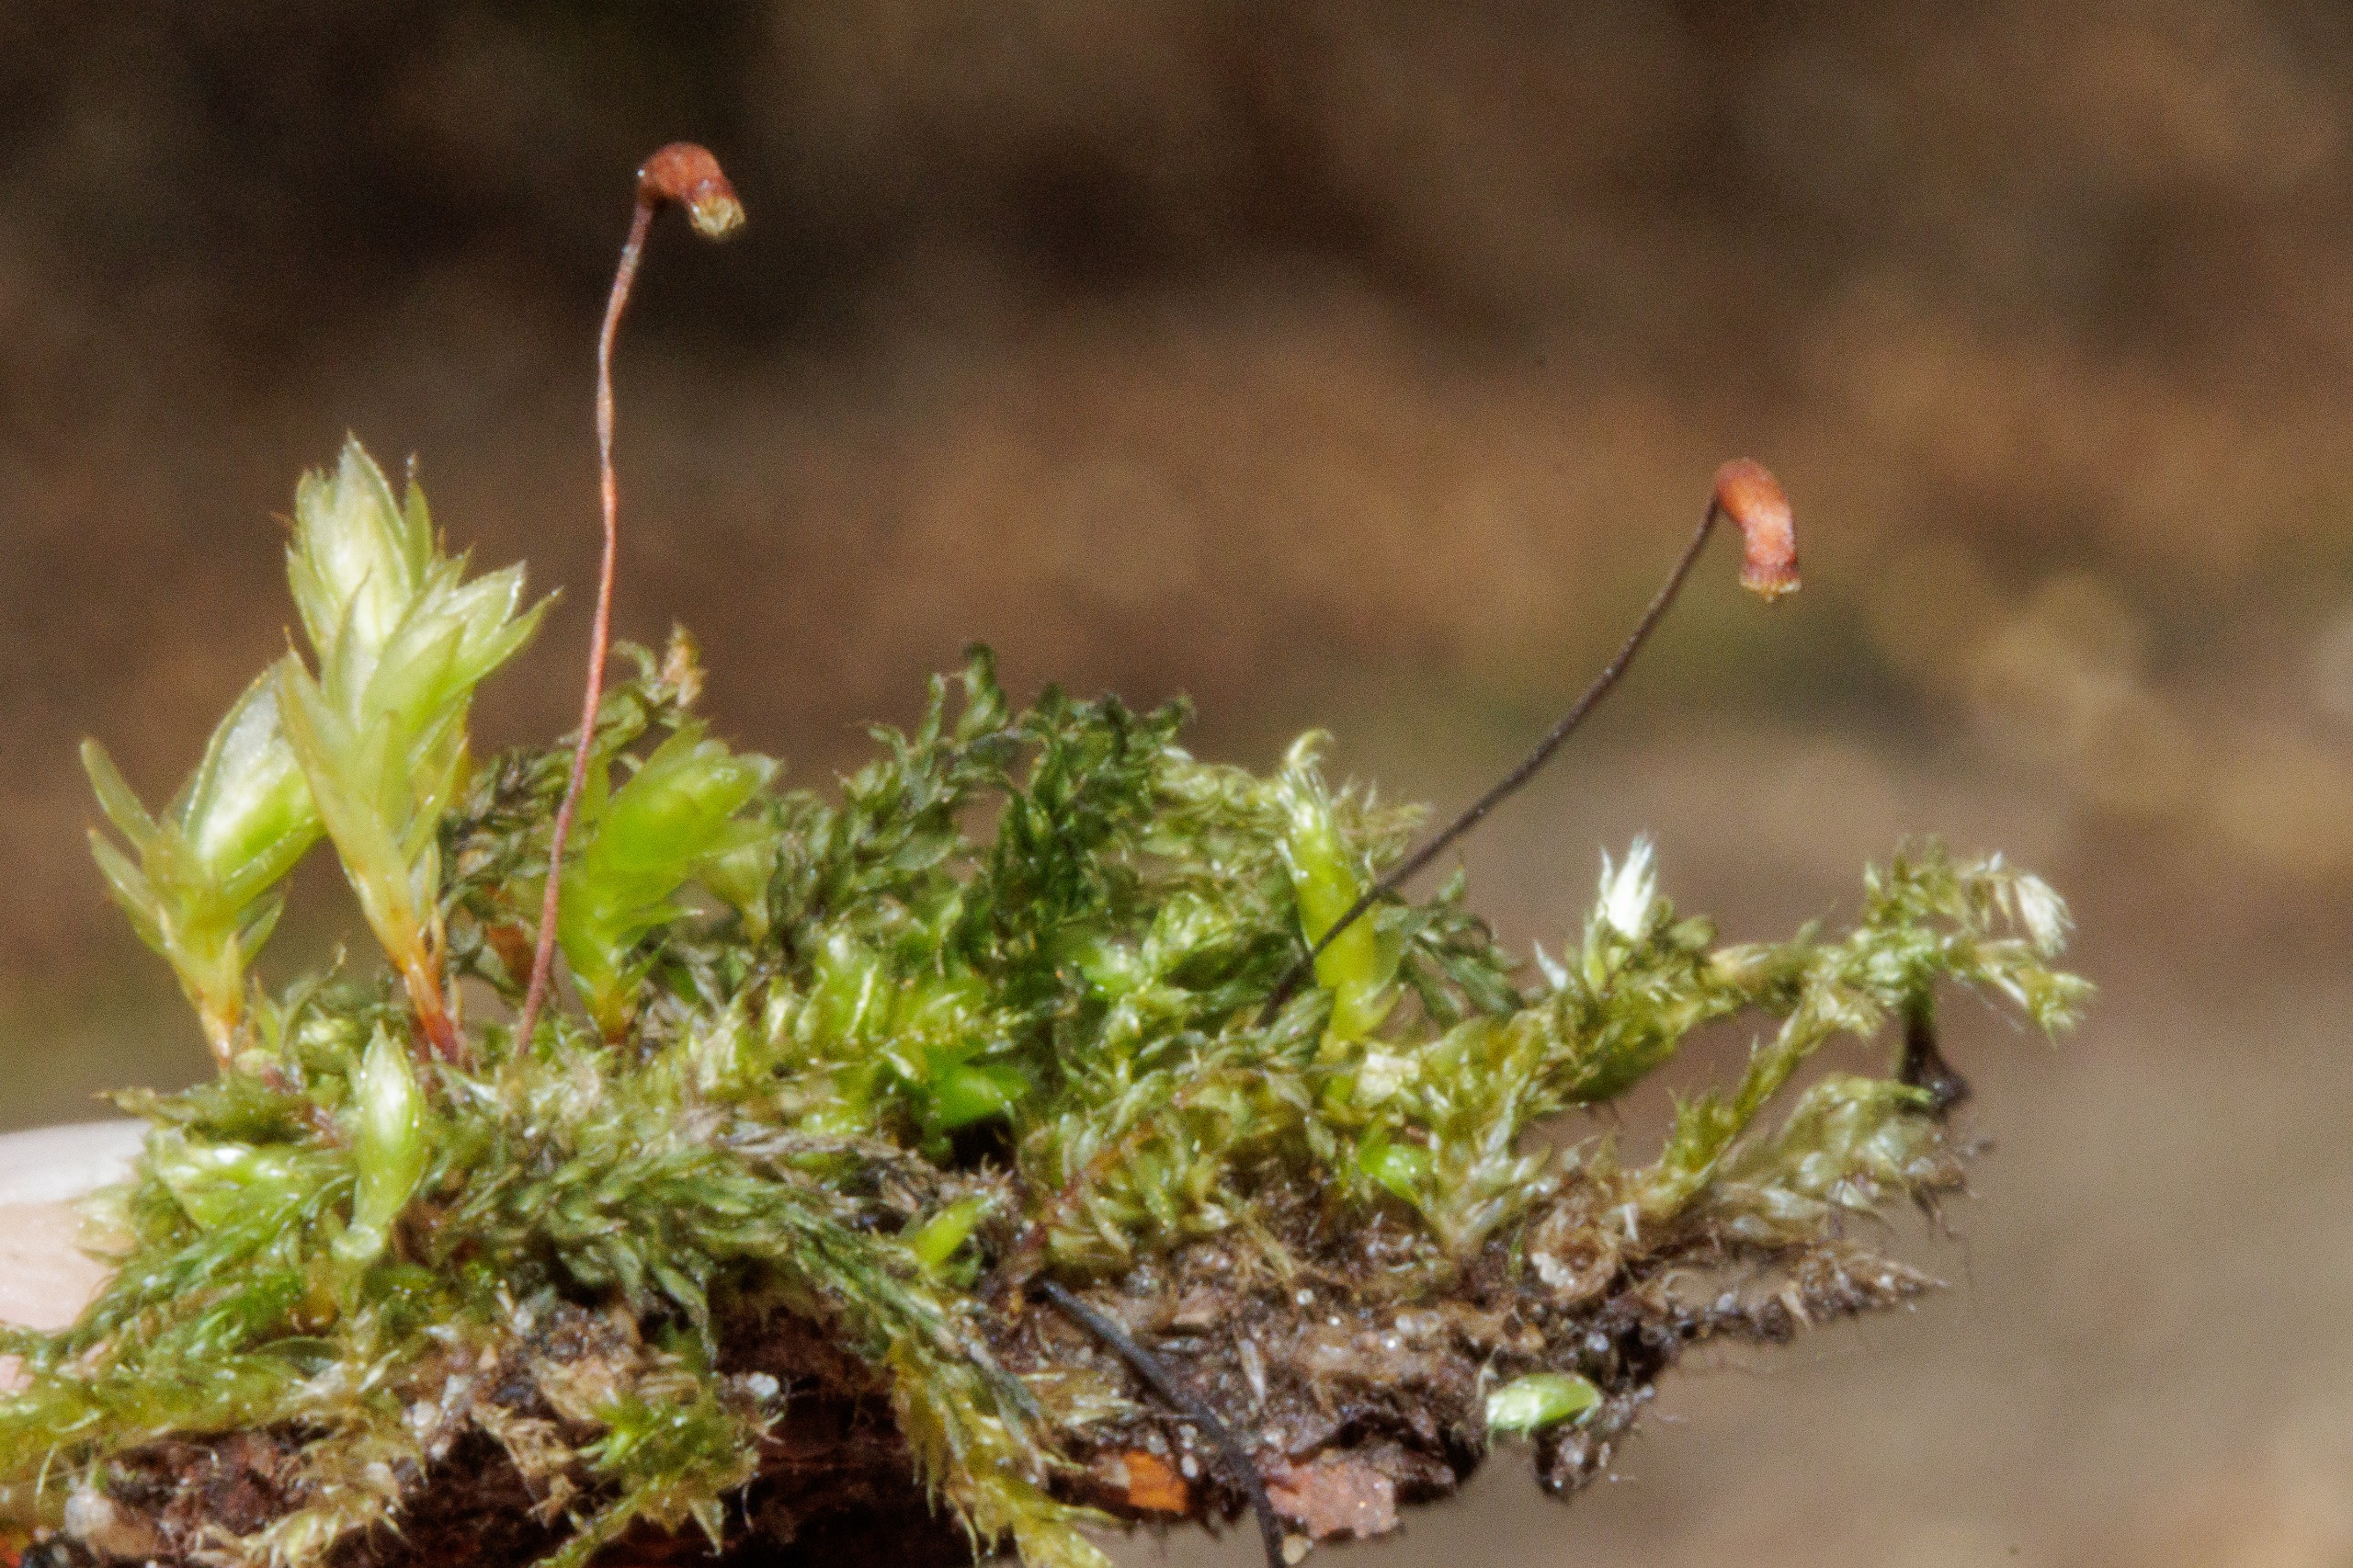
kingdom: Plantae
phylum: Bryophyta
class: Bryopsida
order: Bryales
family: Mniaceae
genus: Mnium
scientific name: Mnium hornum
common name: Brunfiltet stjernemos
